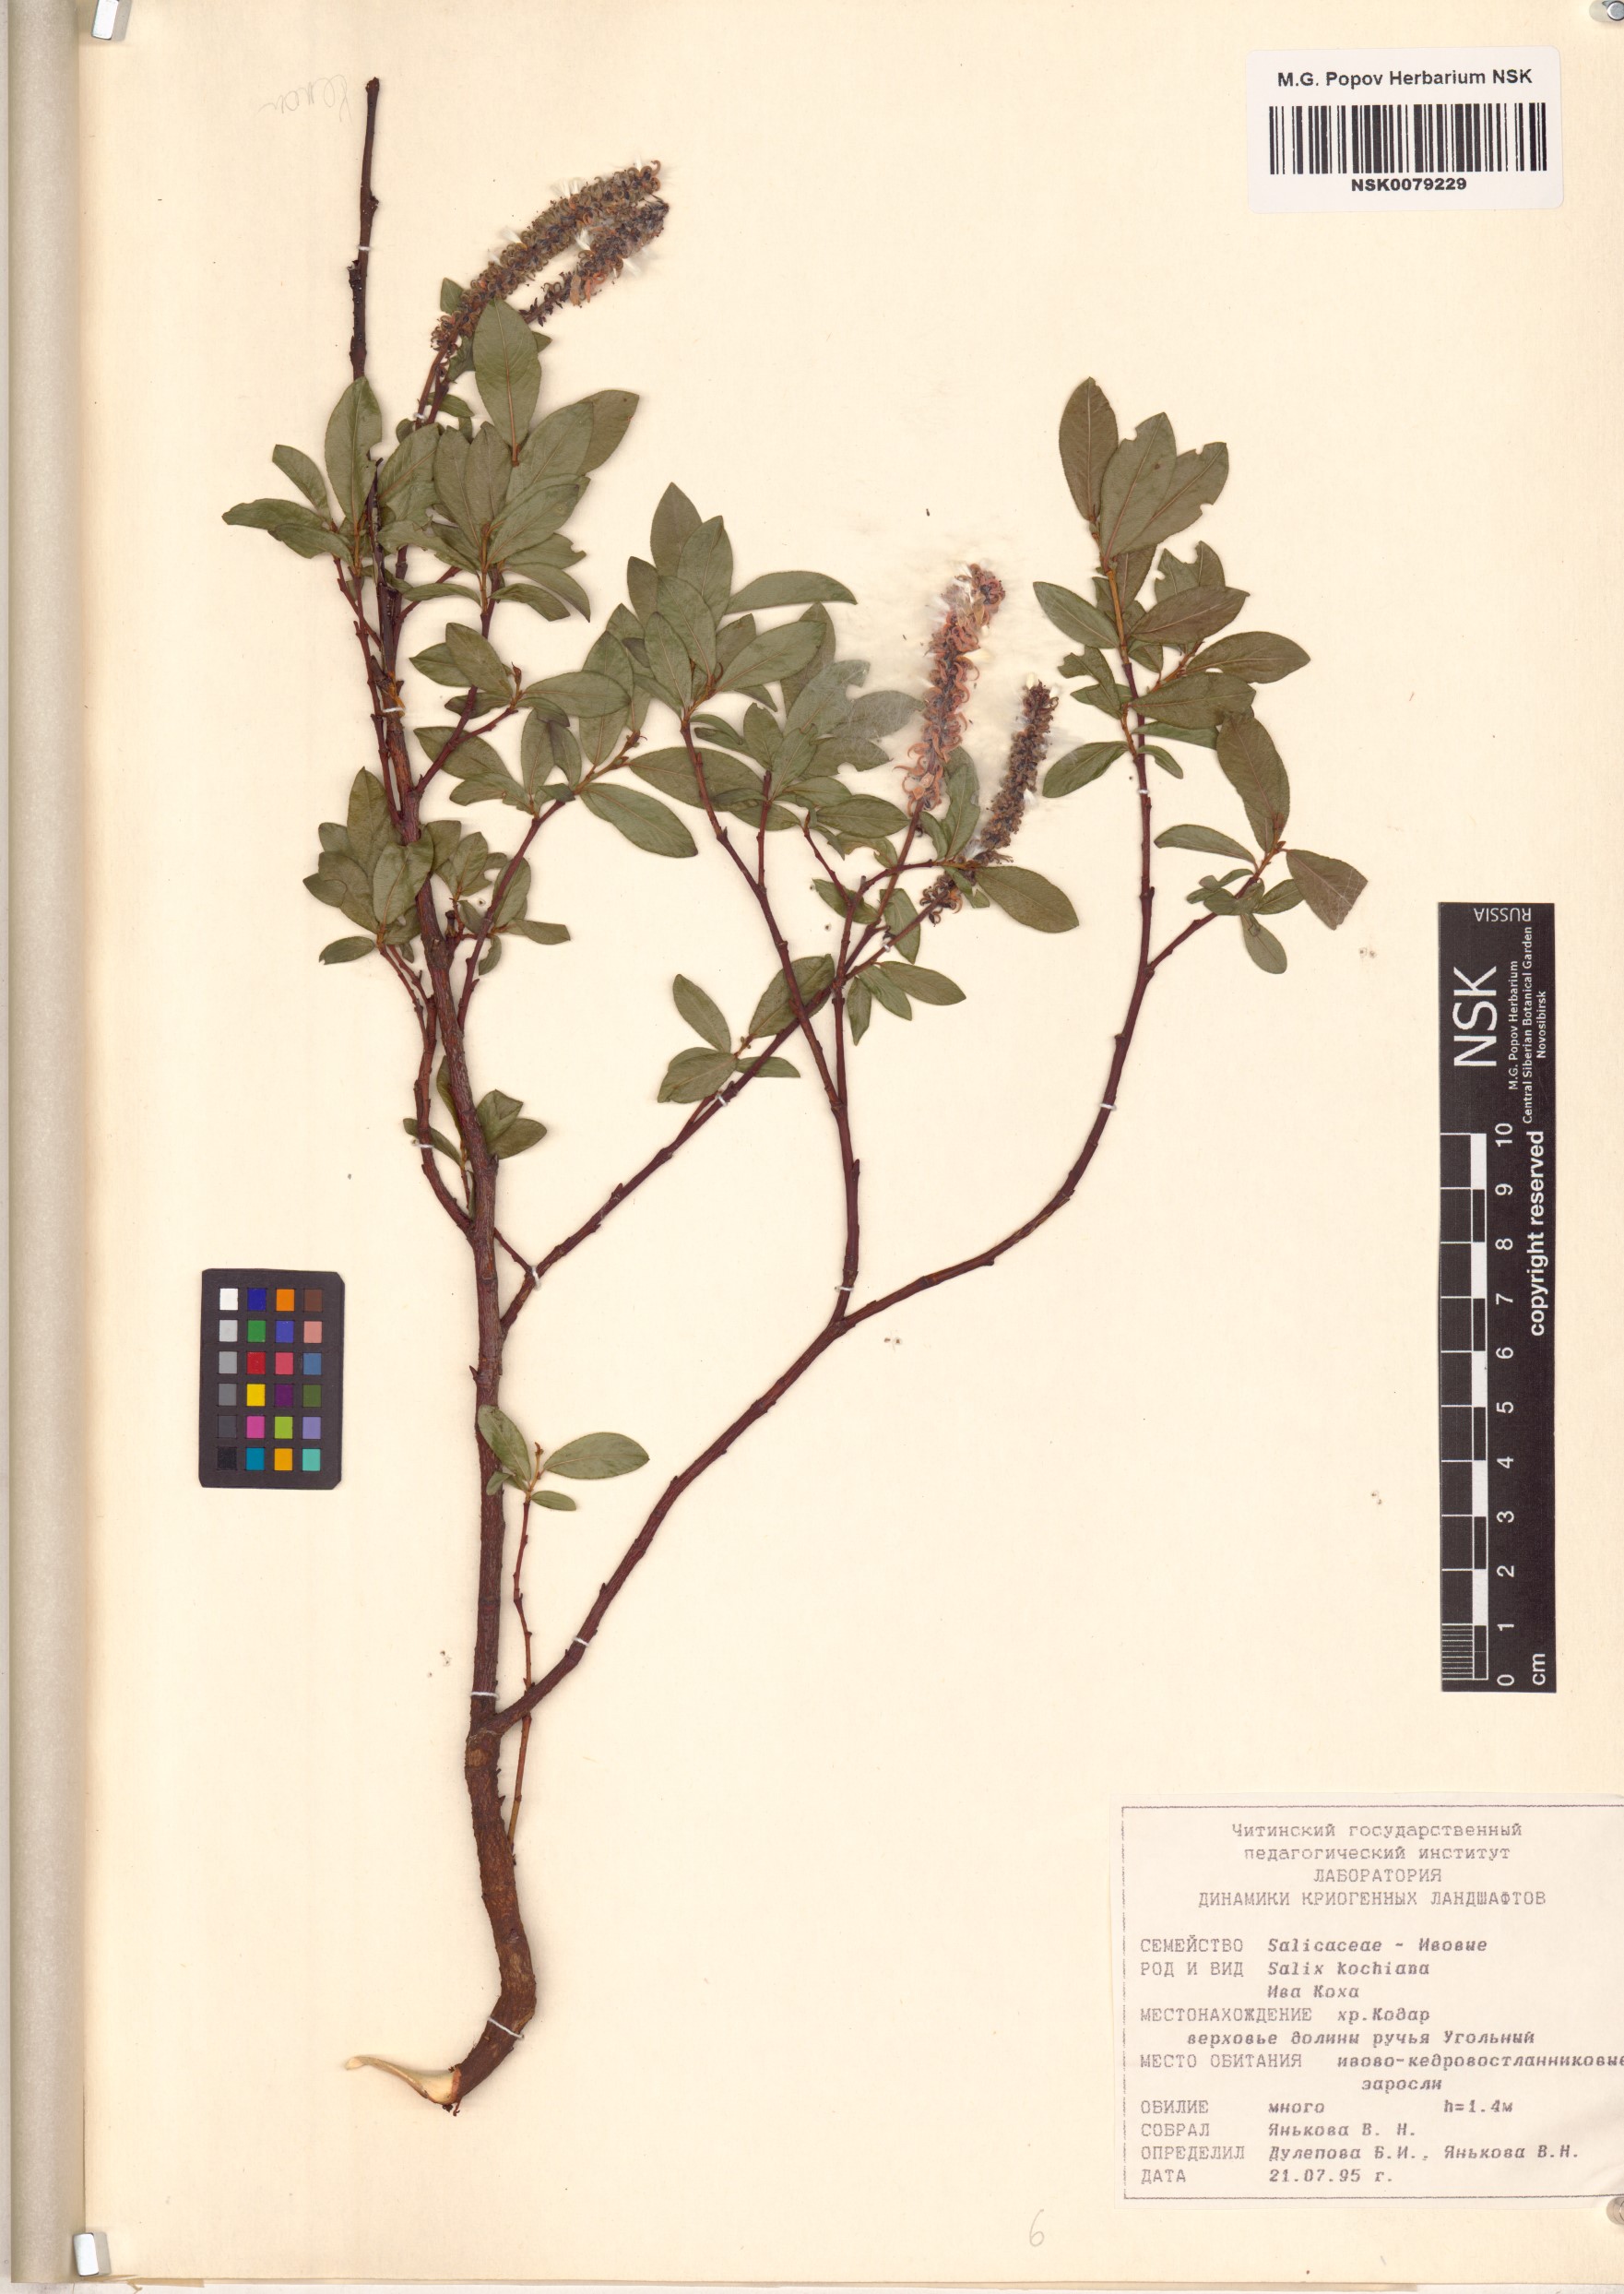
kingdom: Plantae
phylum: Tracheophyta
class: Magnoliopsida
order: Malpighiales
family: Salicaceae
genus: Salix
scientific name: Salix kochiana
